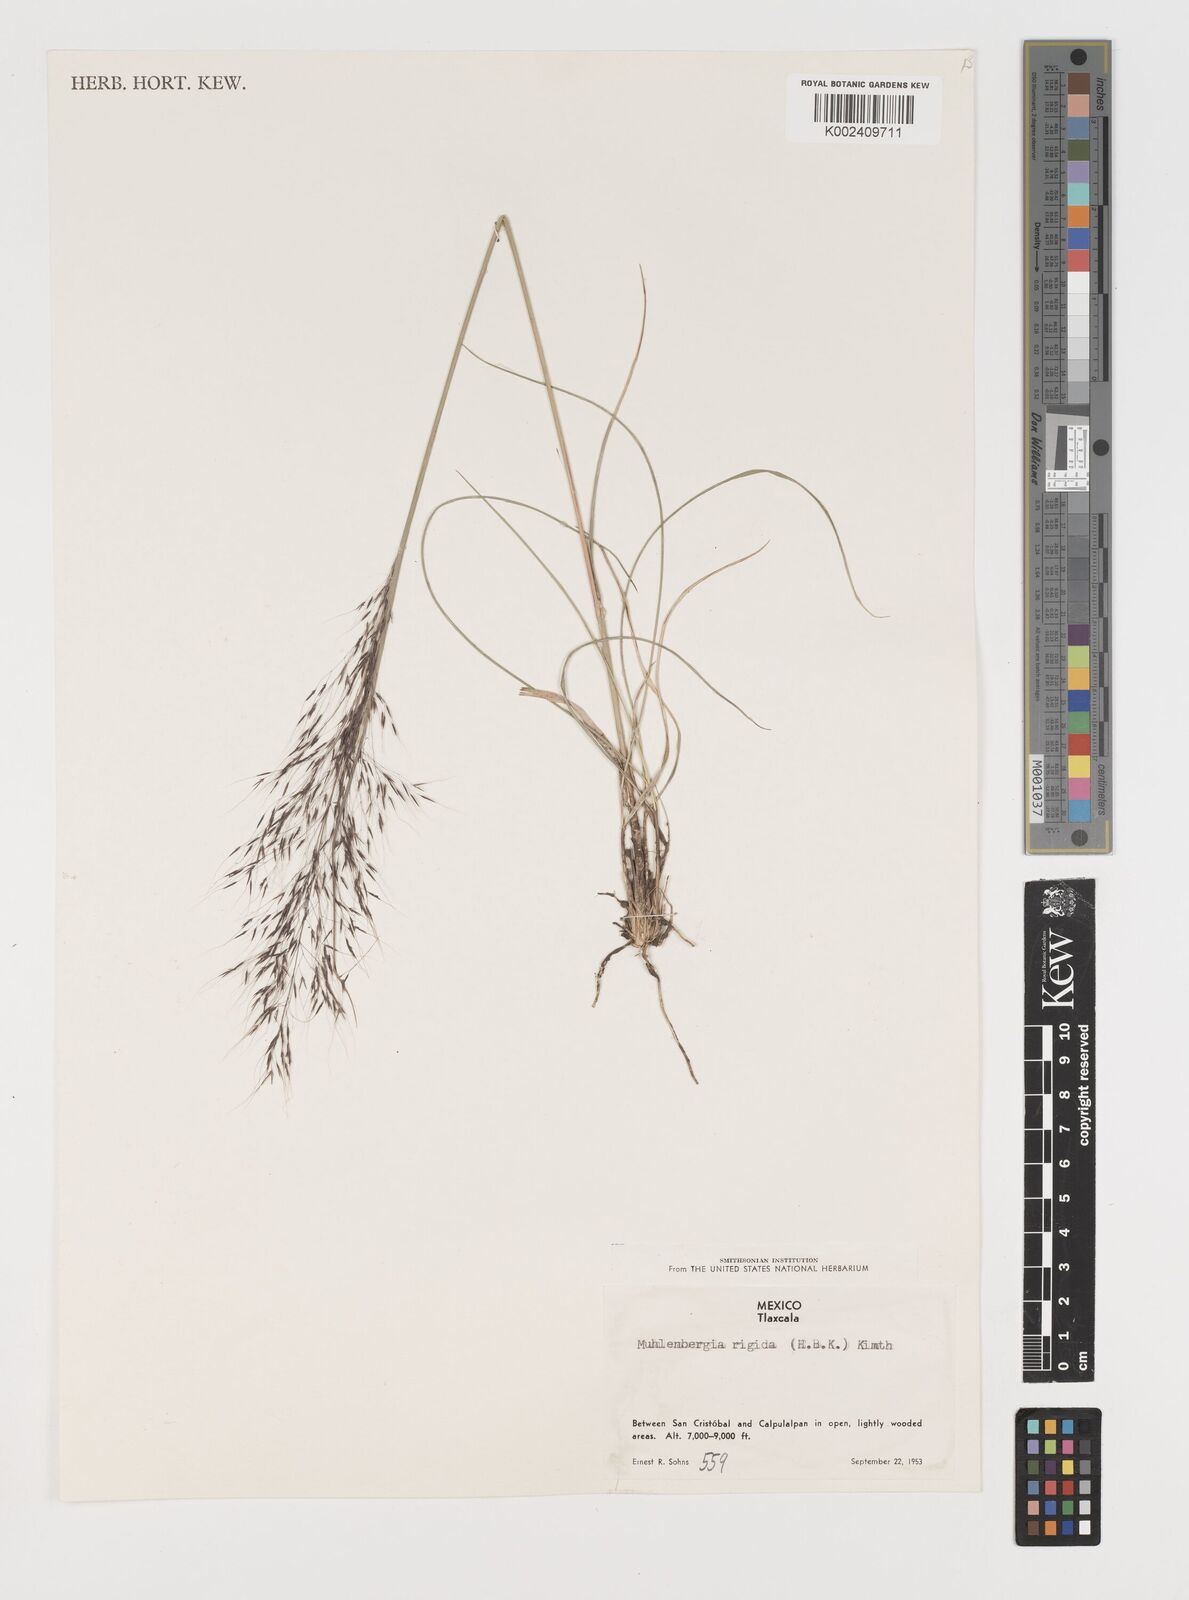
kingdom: Plantae
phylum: Tracheophyta
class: Liliopsida
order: Poales
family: Poaceae
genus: Muhlenbergia
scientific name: Muhlenbergia rigida
